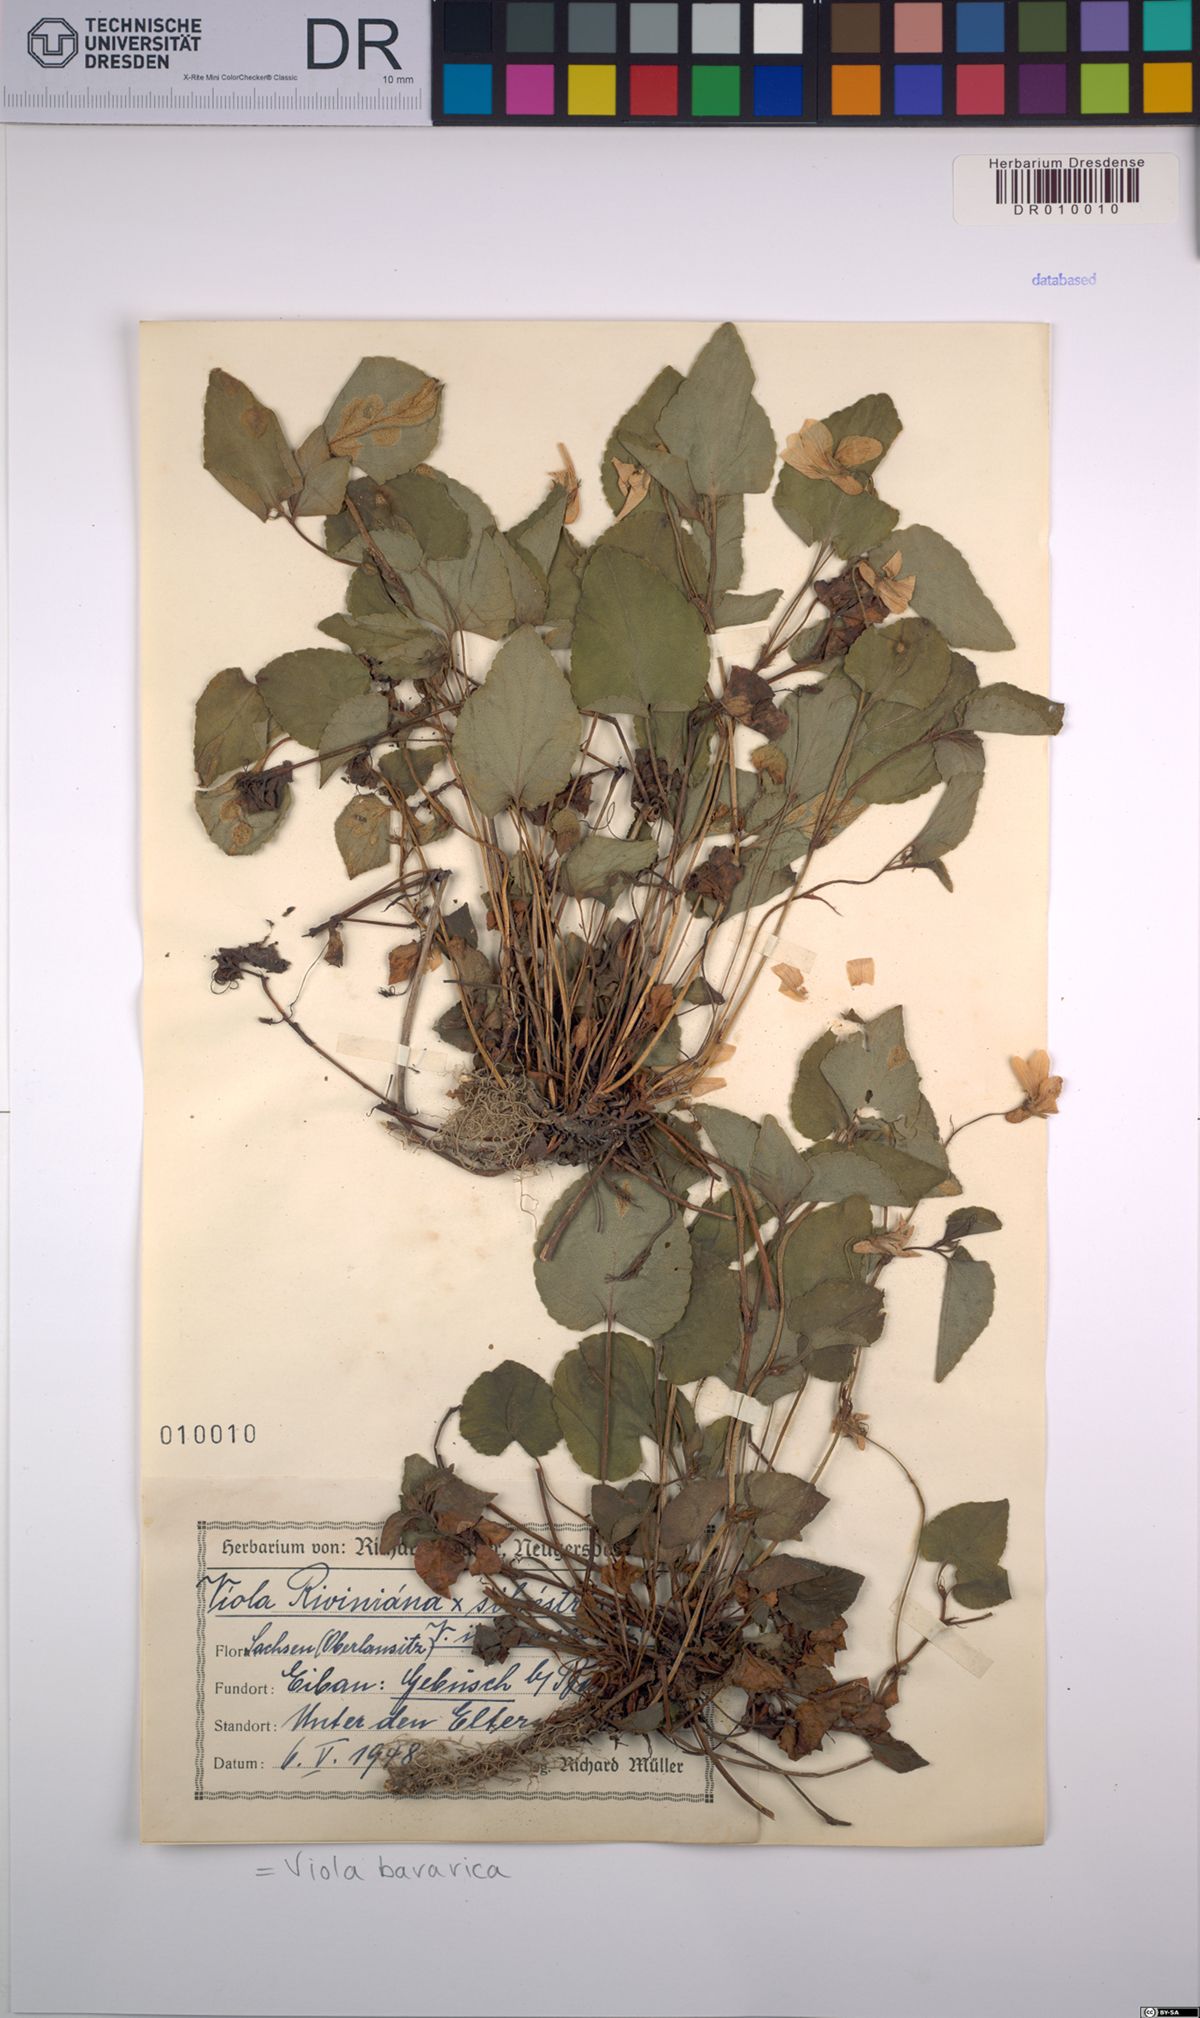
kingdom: Plantae
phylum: Tracheophyta
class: Magnoliopsida
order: Malpighiales
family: Violaceae
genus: Viola
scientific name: Viola bavarica
